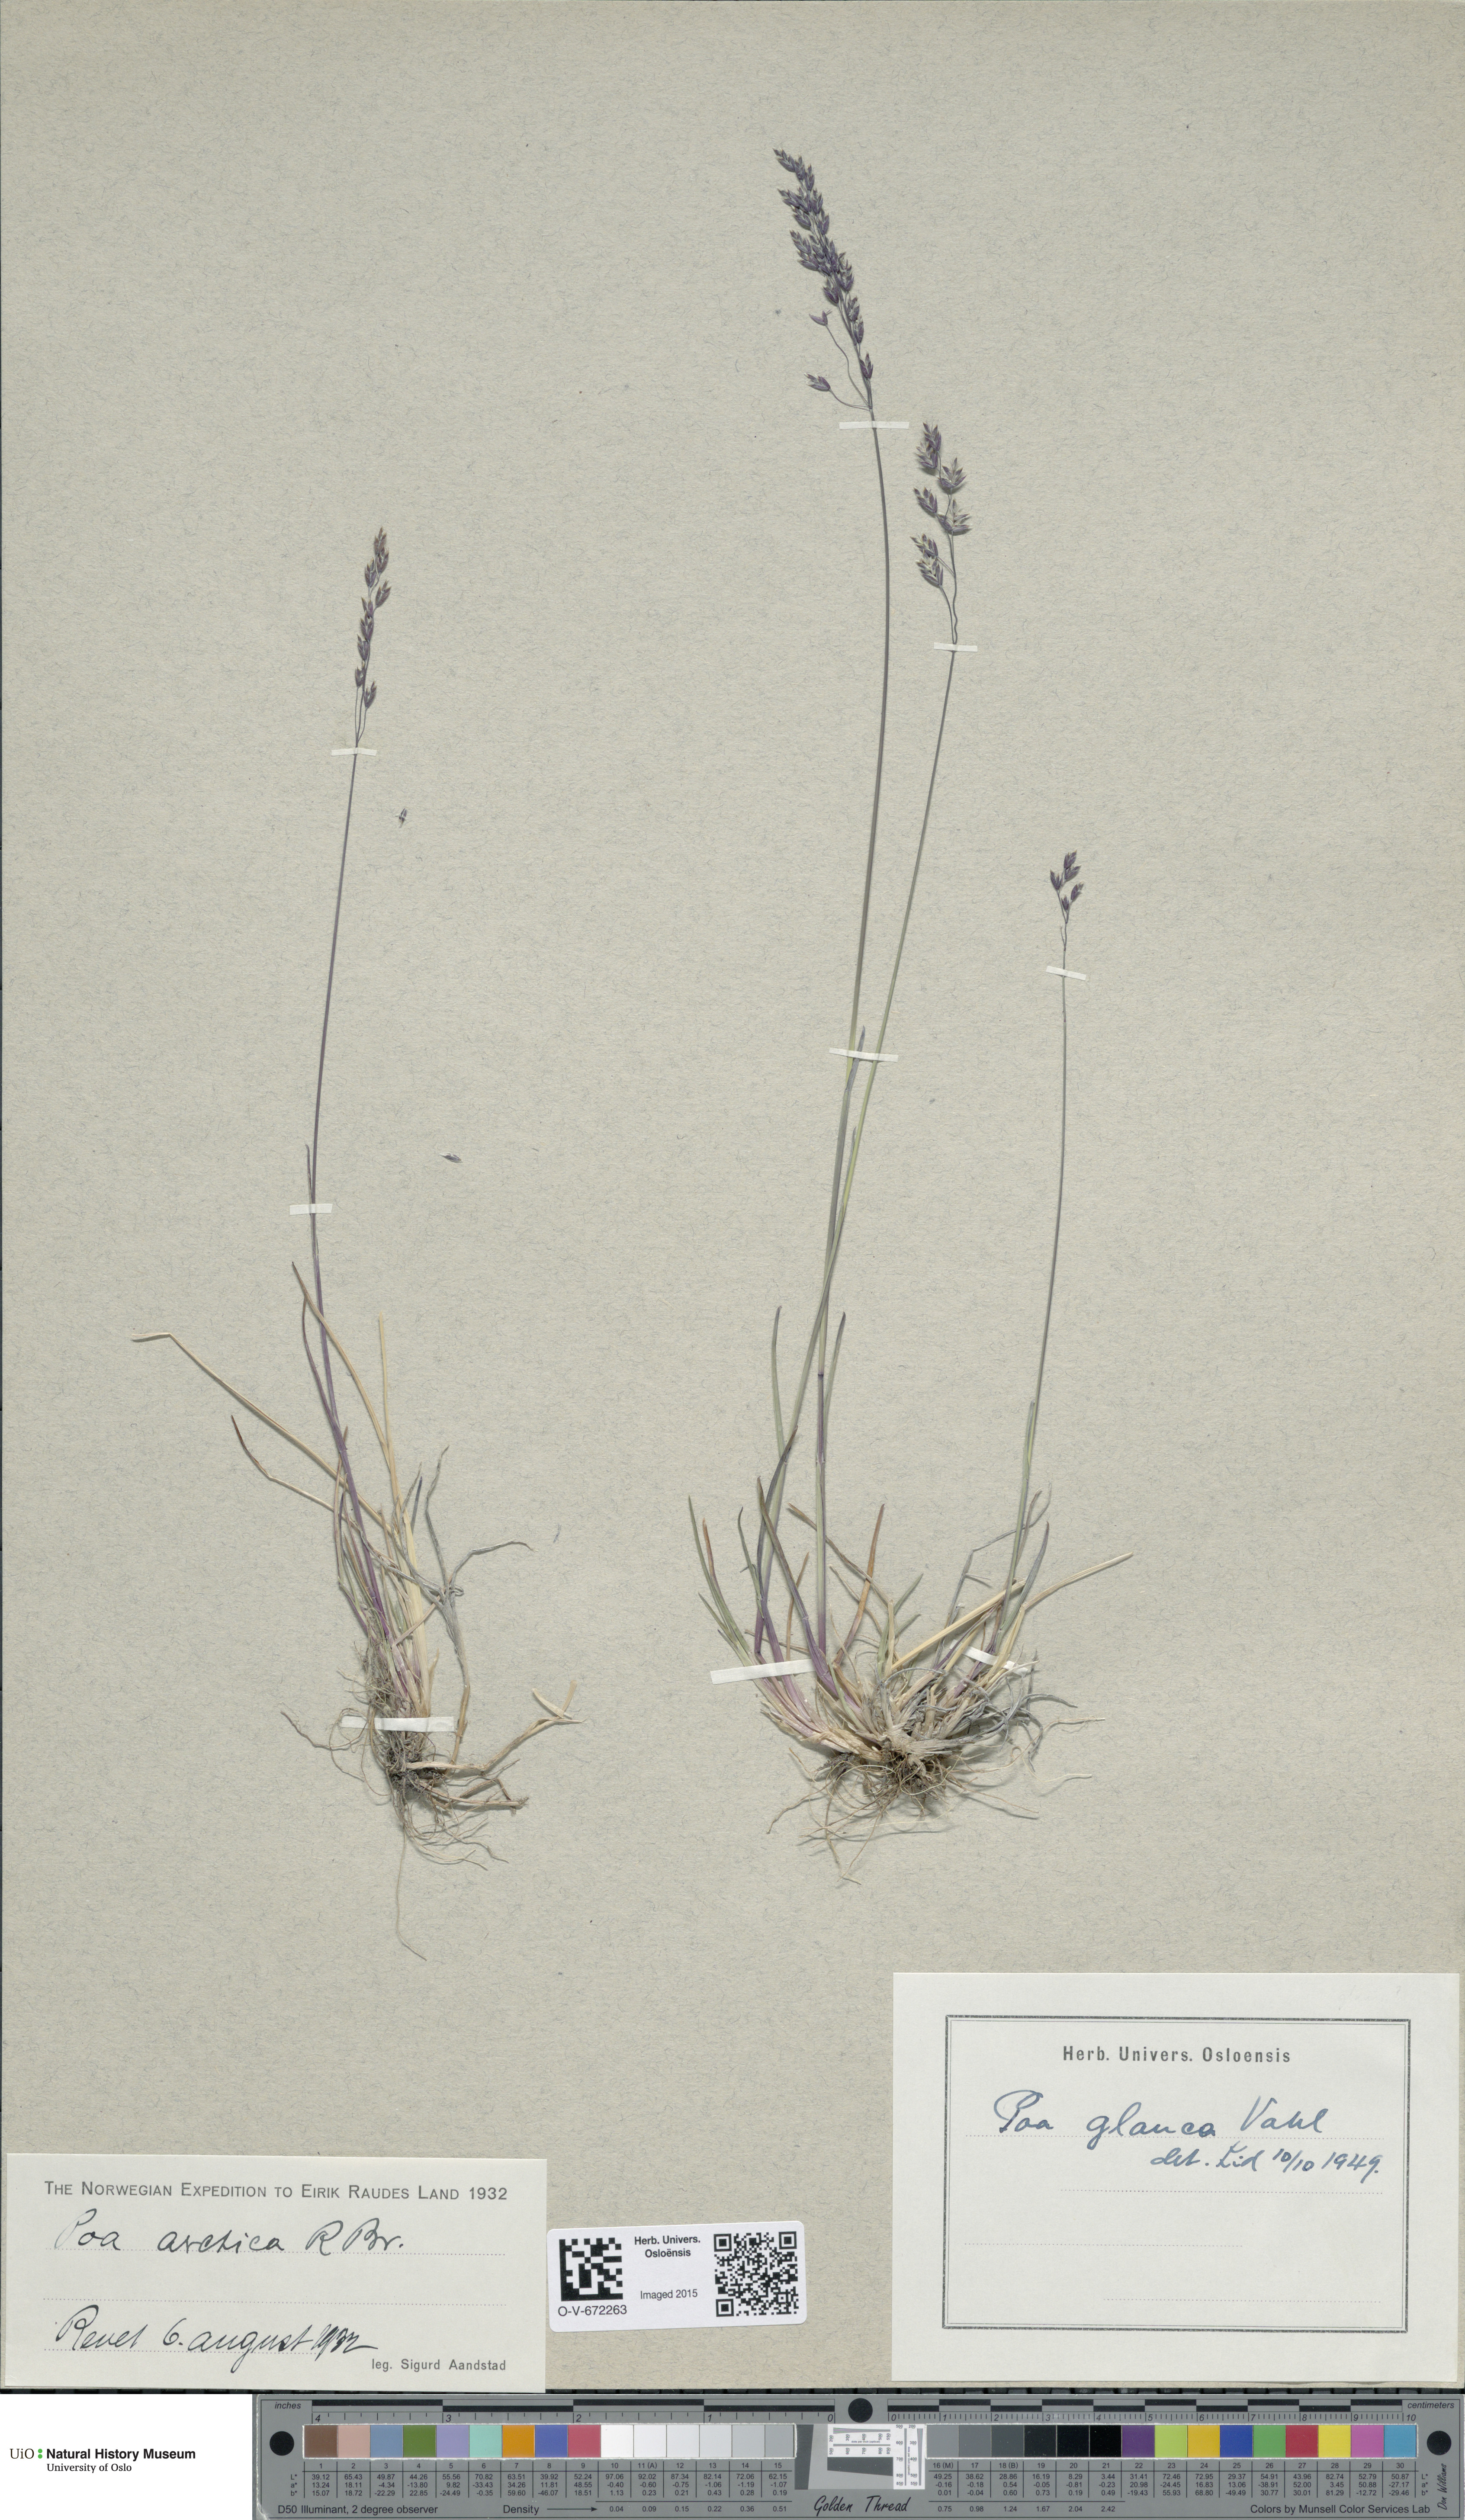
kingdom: Plantae
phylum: Tracheophyta
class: Liliopsida
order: Poales
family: Poaceae
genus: Poa
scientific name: Poa arctica
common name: Arctic bluegrass
